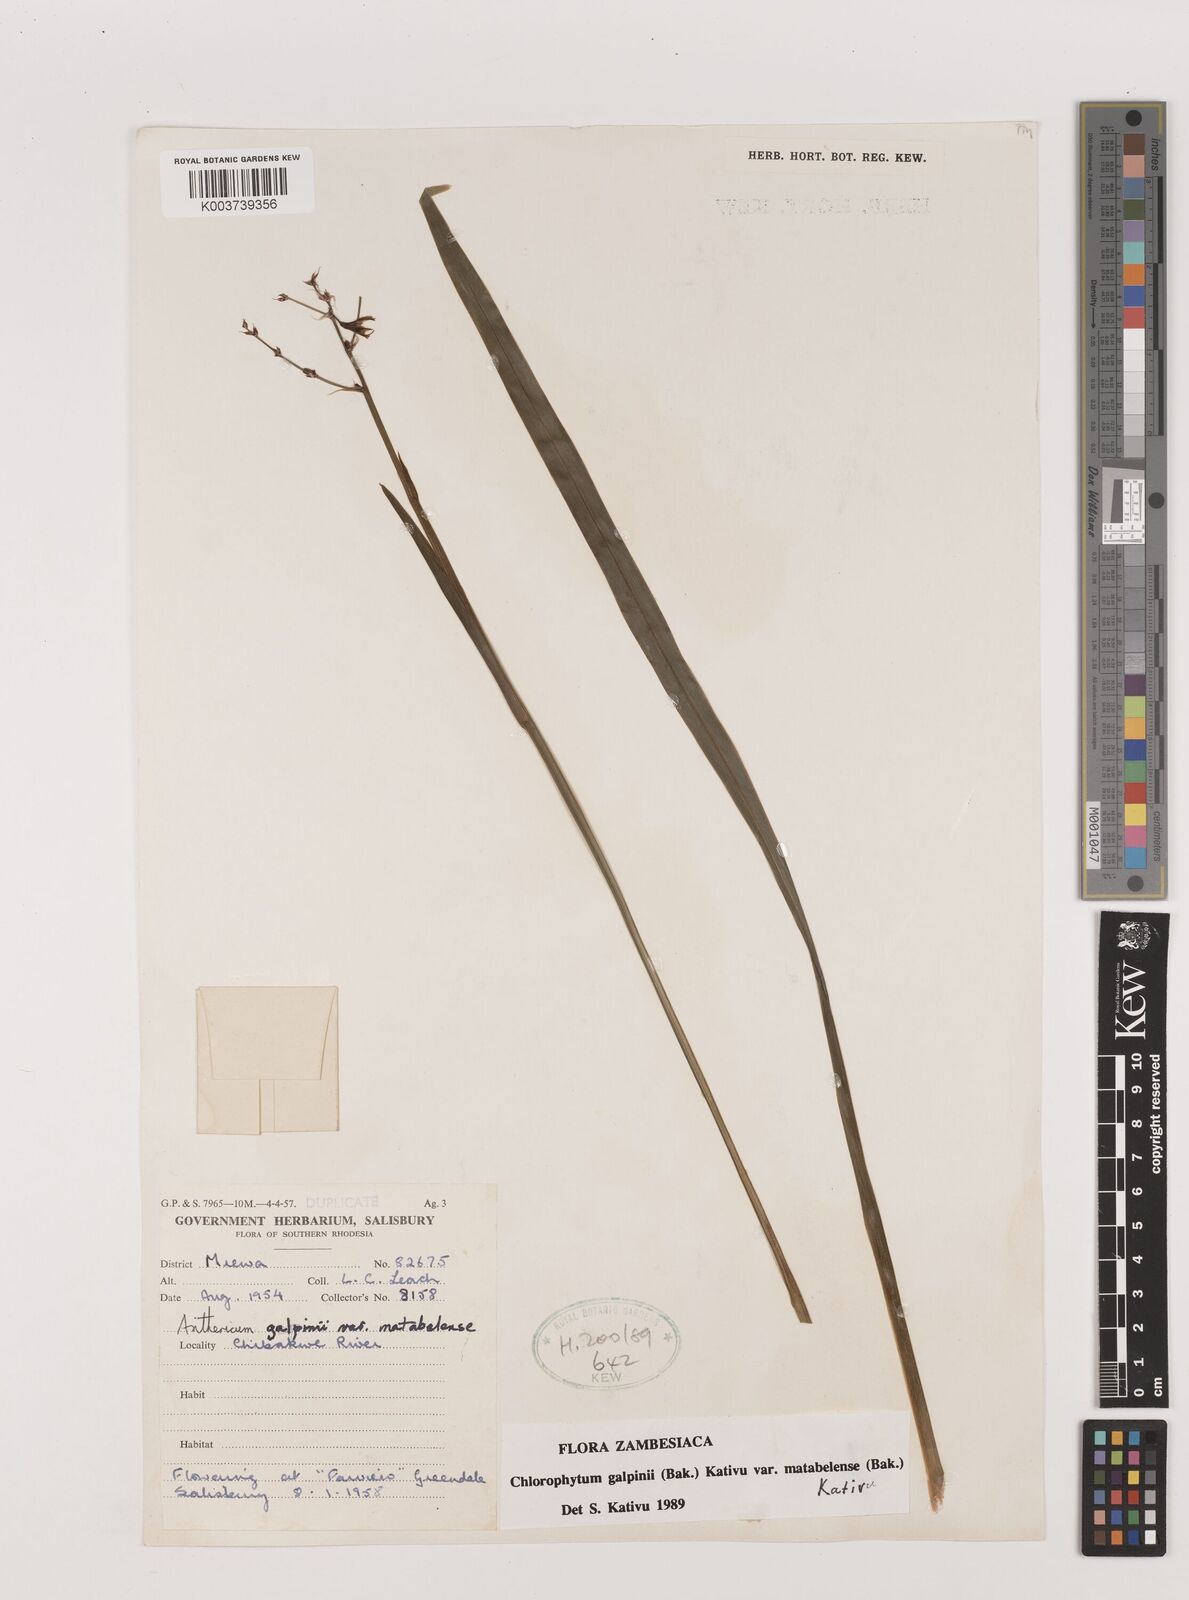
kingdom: Plantae
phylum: Tracheophyta
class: Liliopsida
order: Asparagales
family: Asparagaceae
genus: Chlorophytum
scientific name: Chlorophytum galpinii
